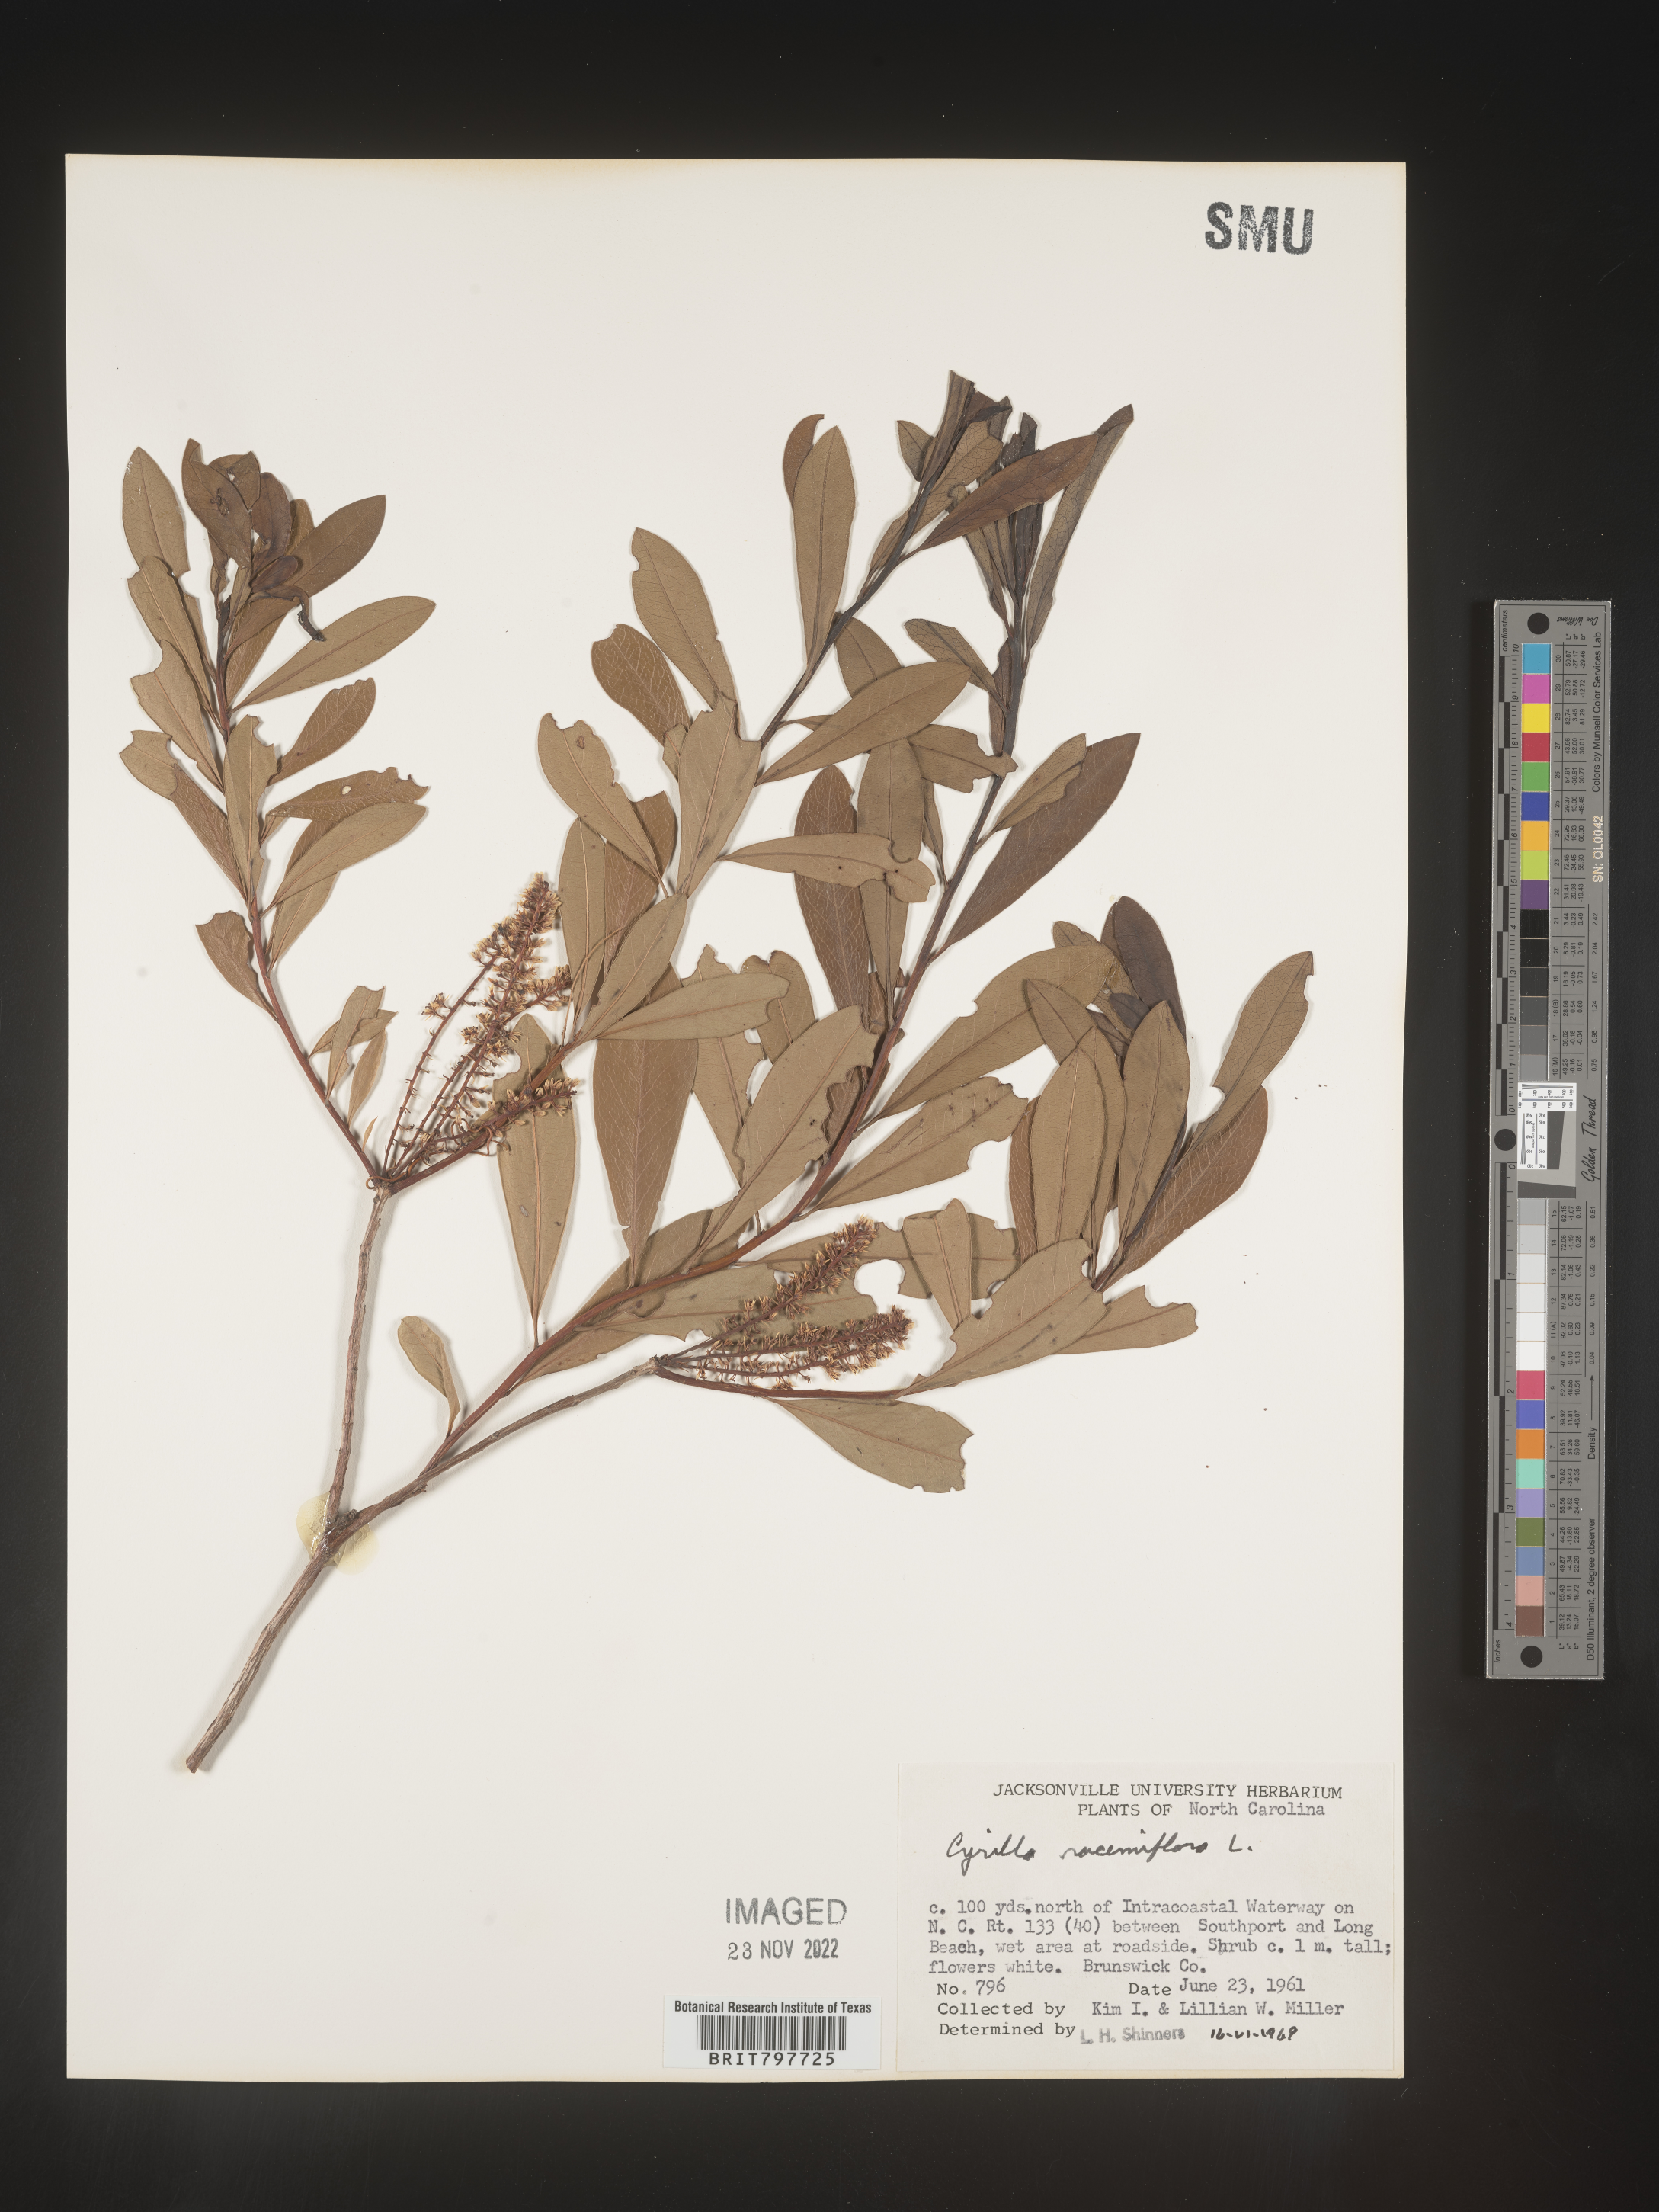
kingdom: Plantae
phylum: Tracheophyta
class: Magnoliopsida
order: Ericales
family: Cyrillaceae
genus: Cyrilla
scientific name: Cyrilla racemiflora
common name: Black titi
